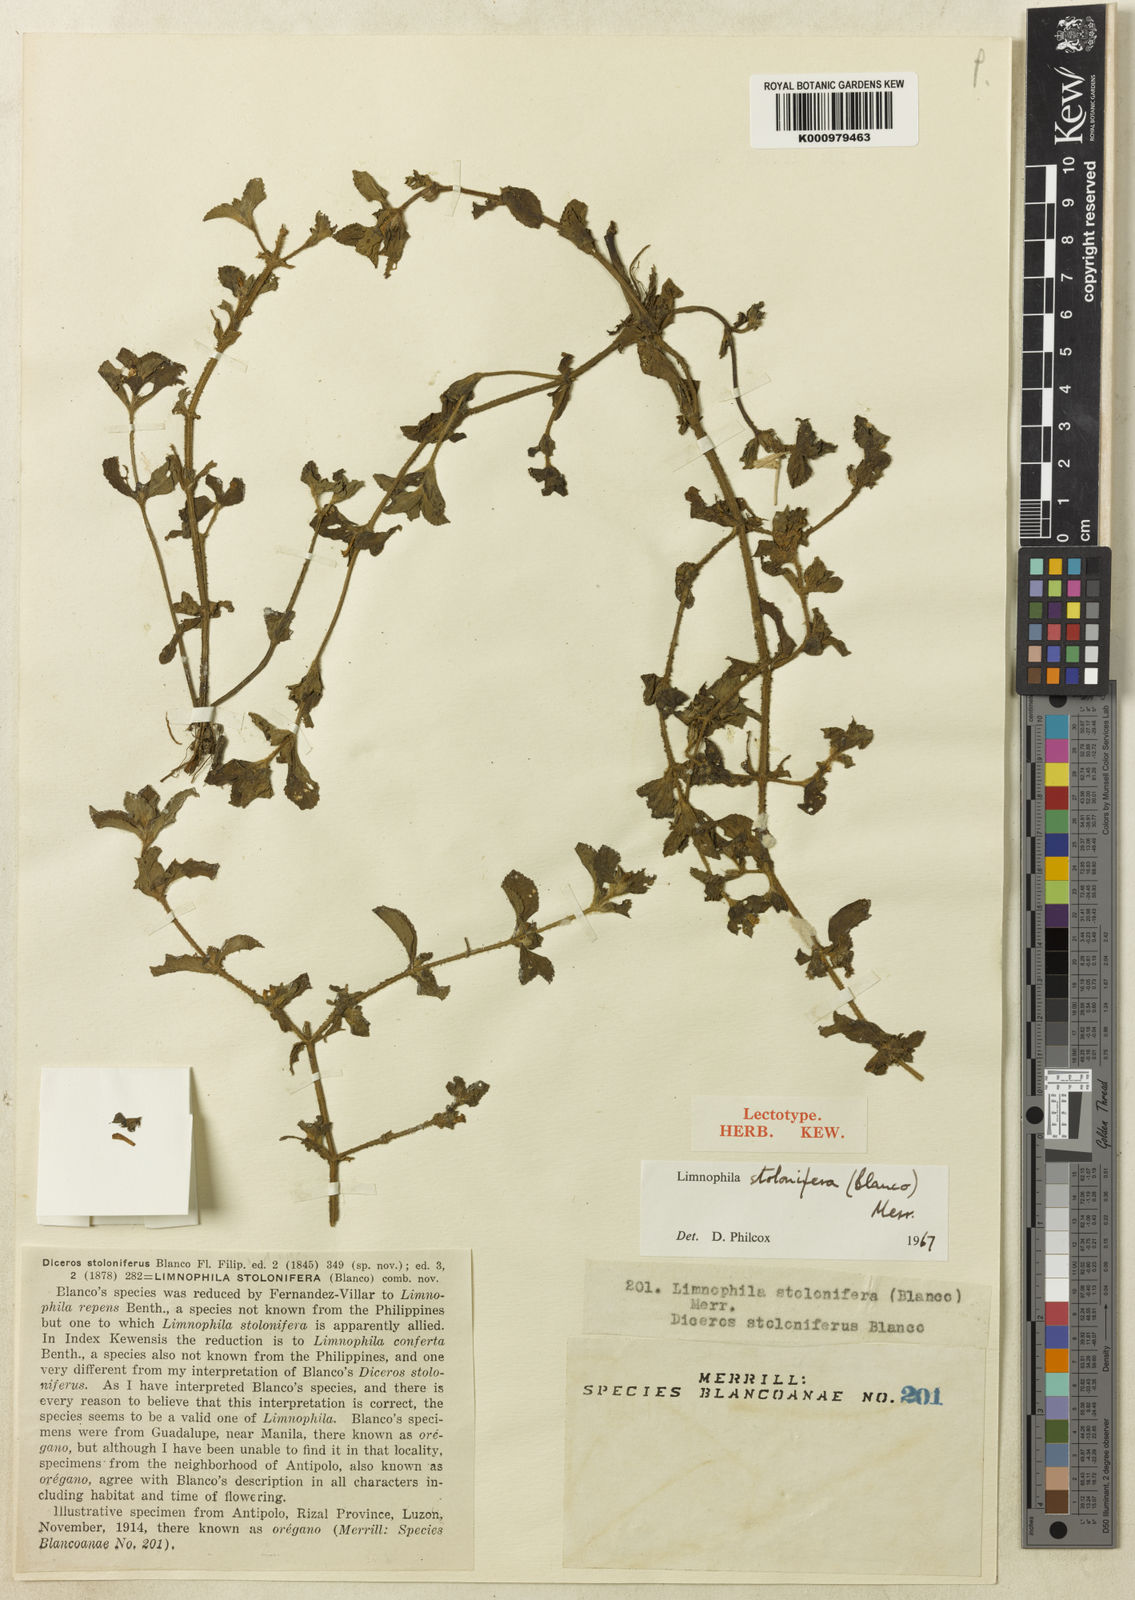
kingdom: Plantae
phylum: Tracheophyta
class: Magnoliopsida
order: Lamiales
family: Plantaginaceae
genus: Limnophila
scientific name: Limnophila
